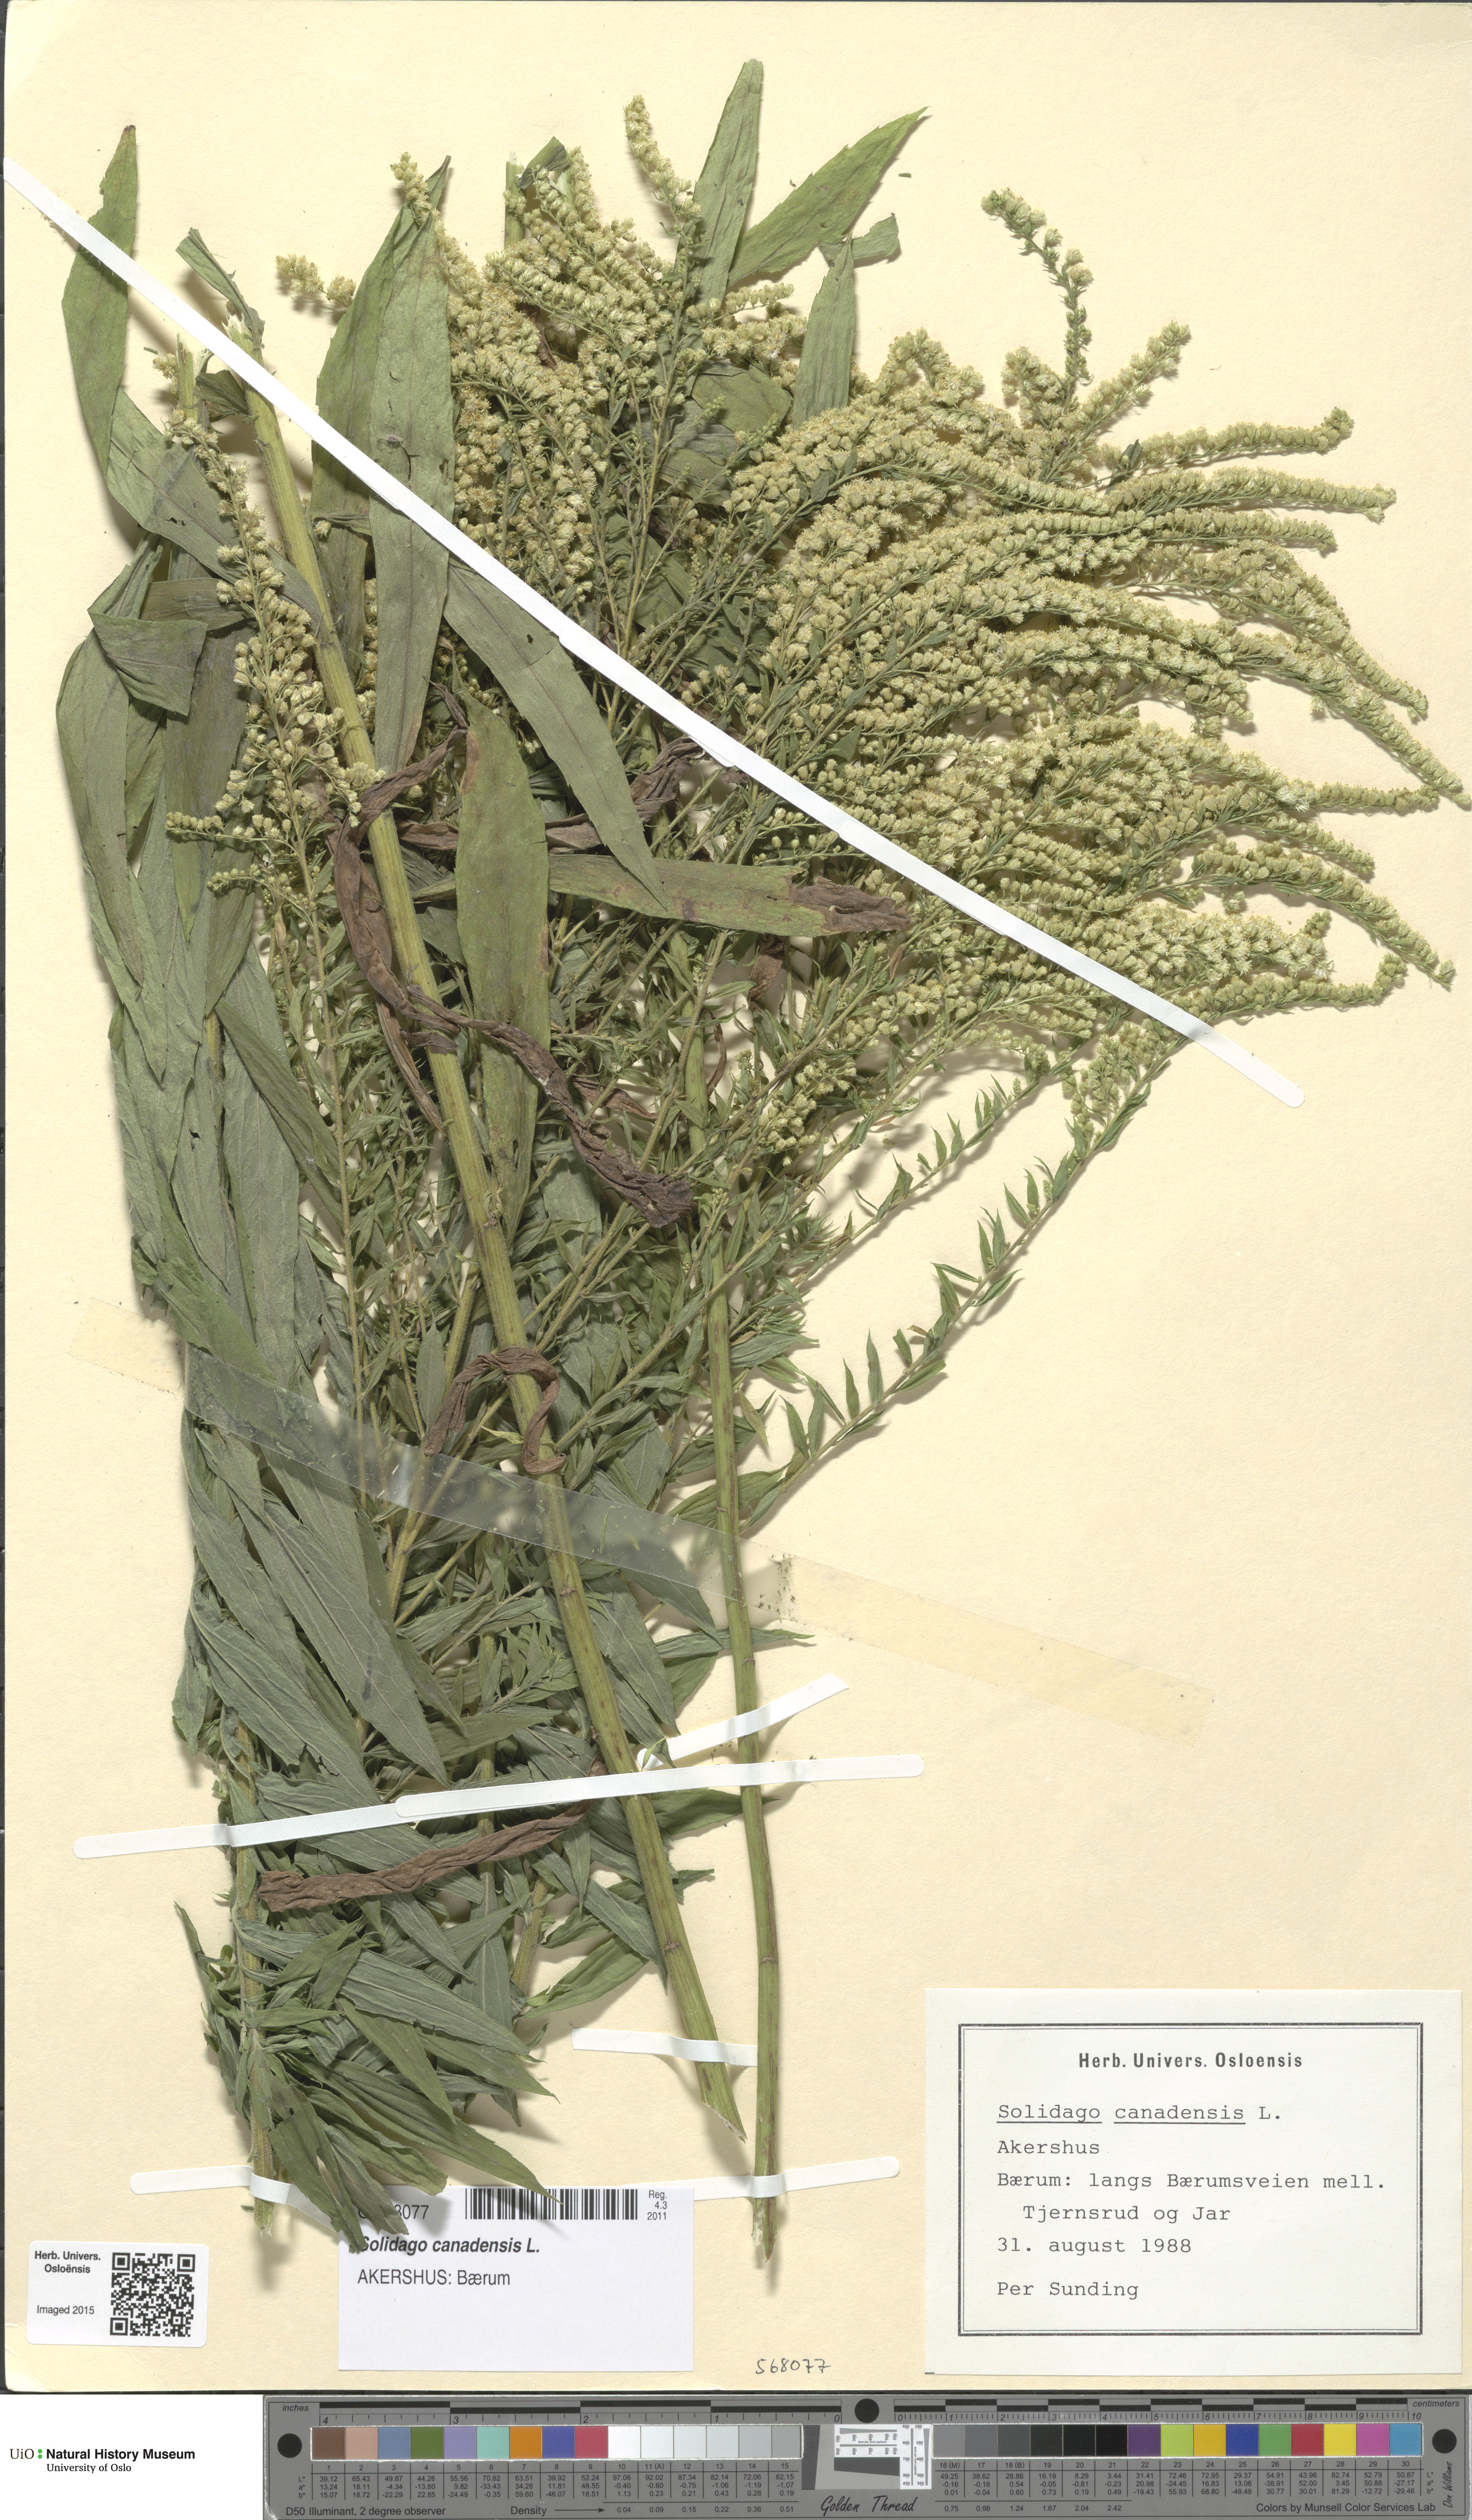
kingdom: Plantae
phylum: Tracheophyta
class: Magnoliopsida
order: Asterales
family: Asteraceae
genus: Solidago
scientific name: Solidago canadensis
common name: Canada goldenrod
